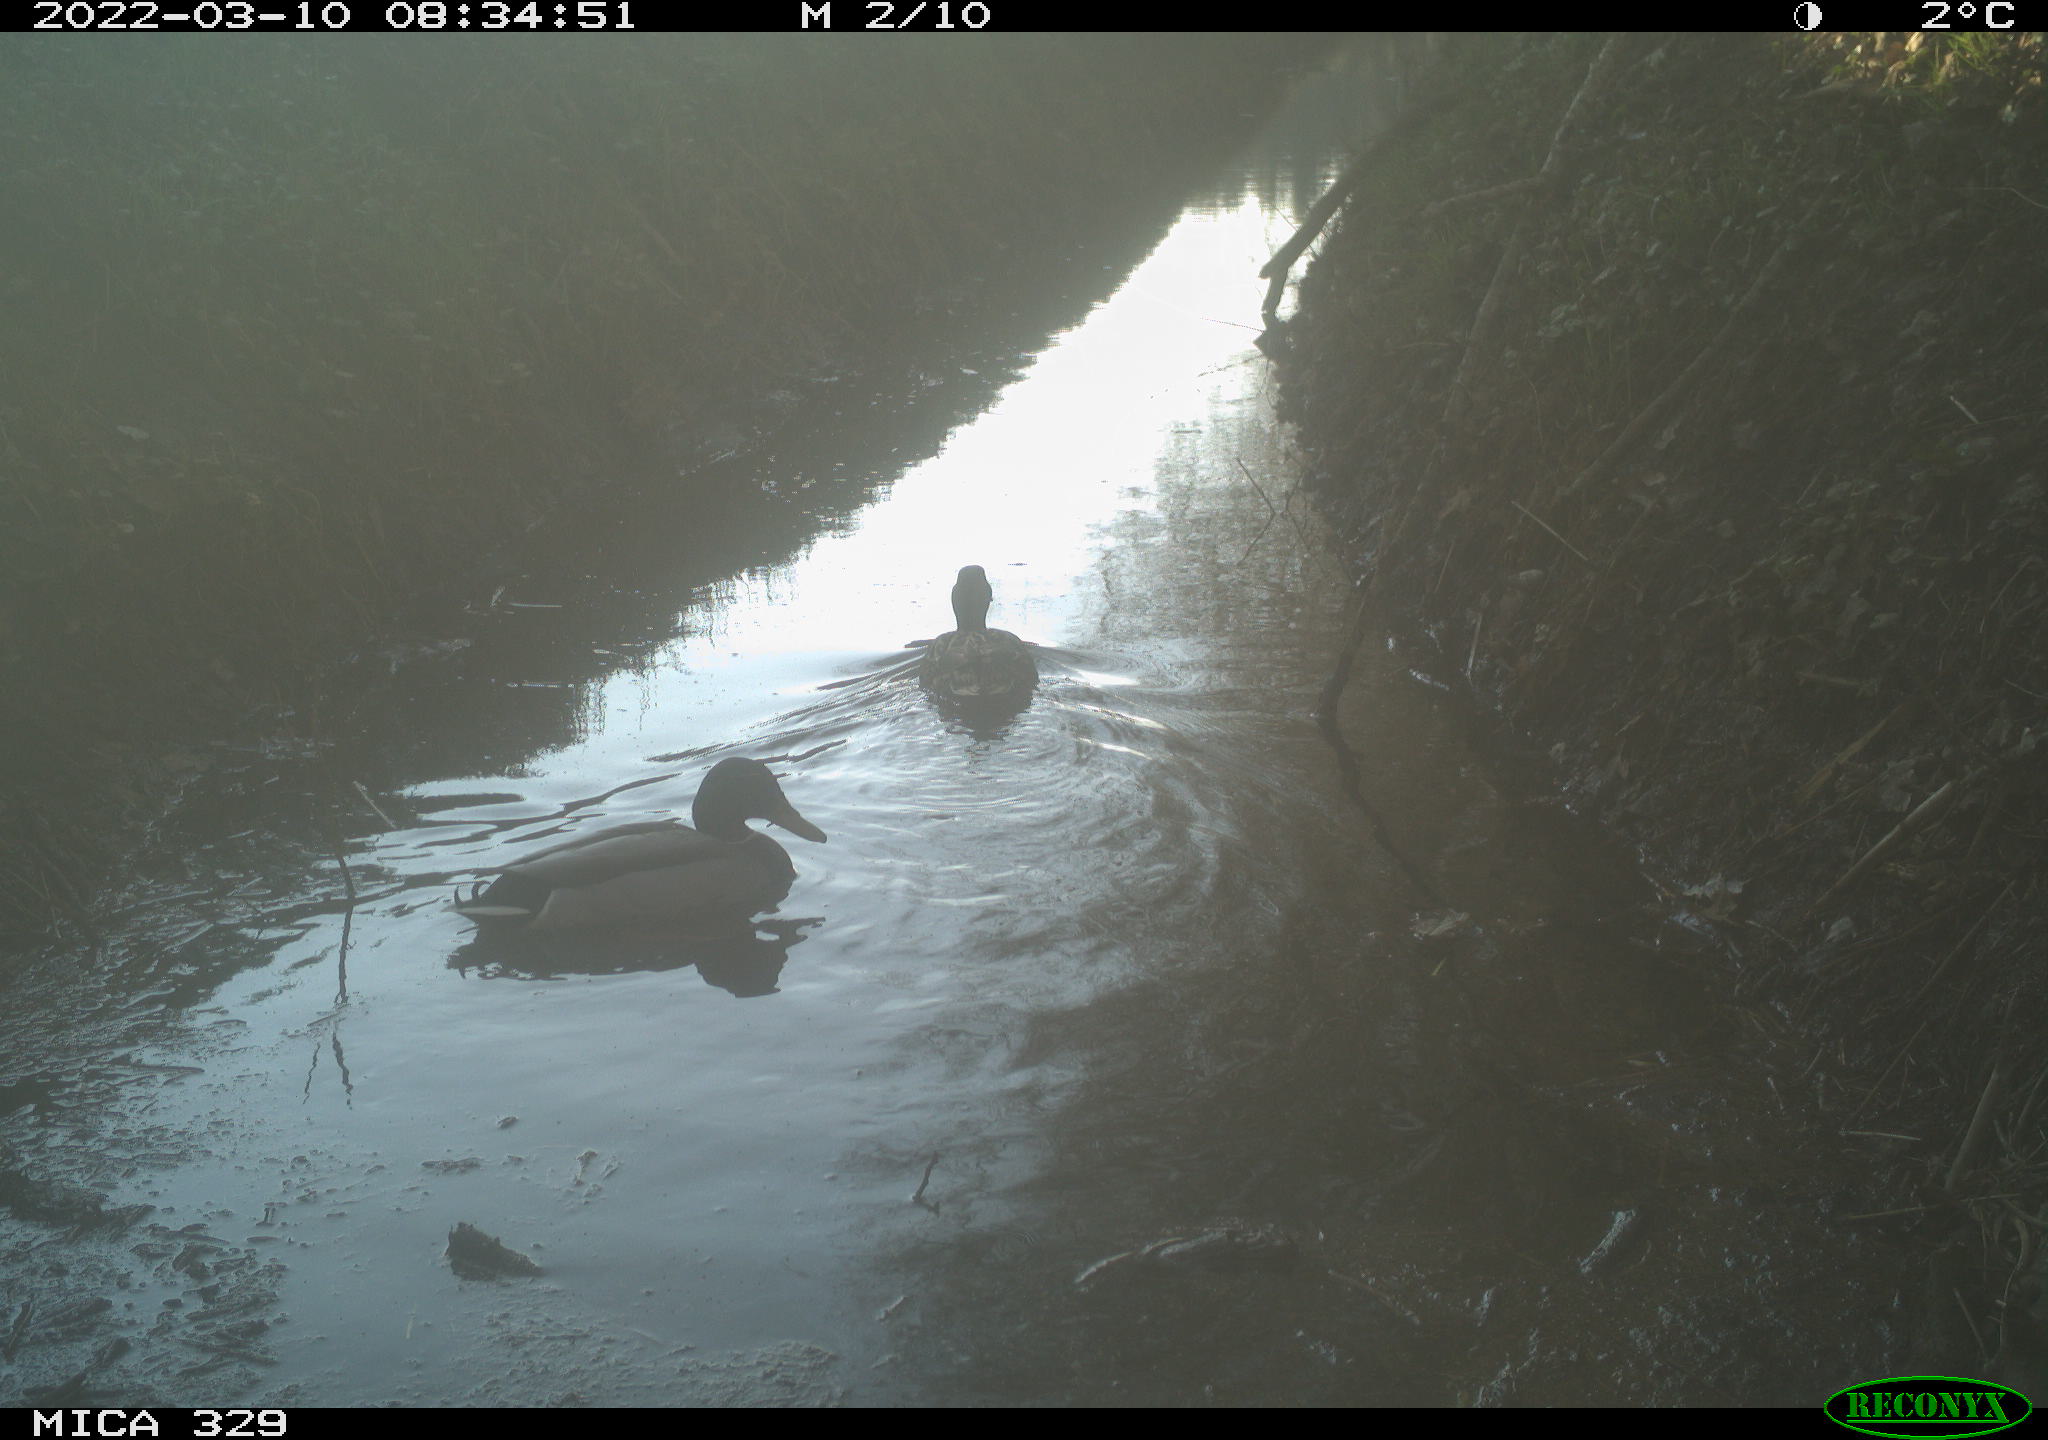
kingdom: Animalia
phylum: Chordata
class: Aves
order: Anseriformes
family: Anatidae
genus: Anas
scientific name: Anas platyrhynchos
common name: Mallard
